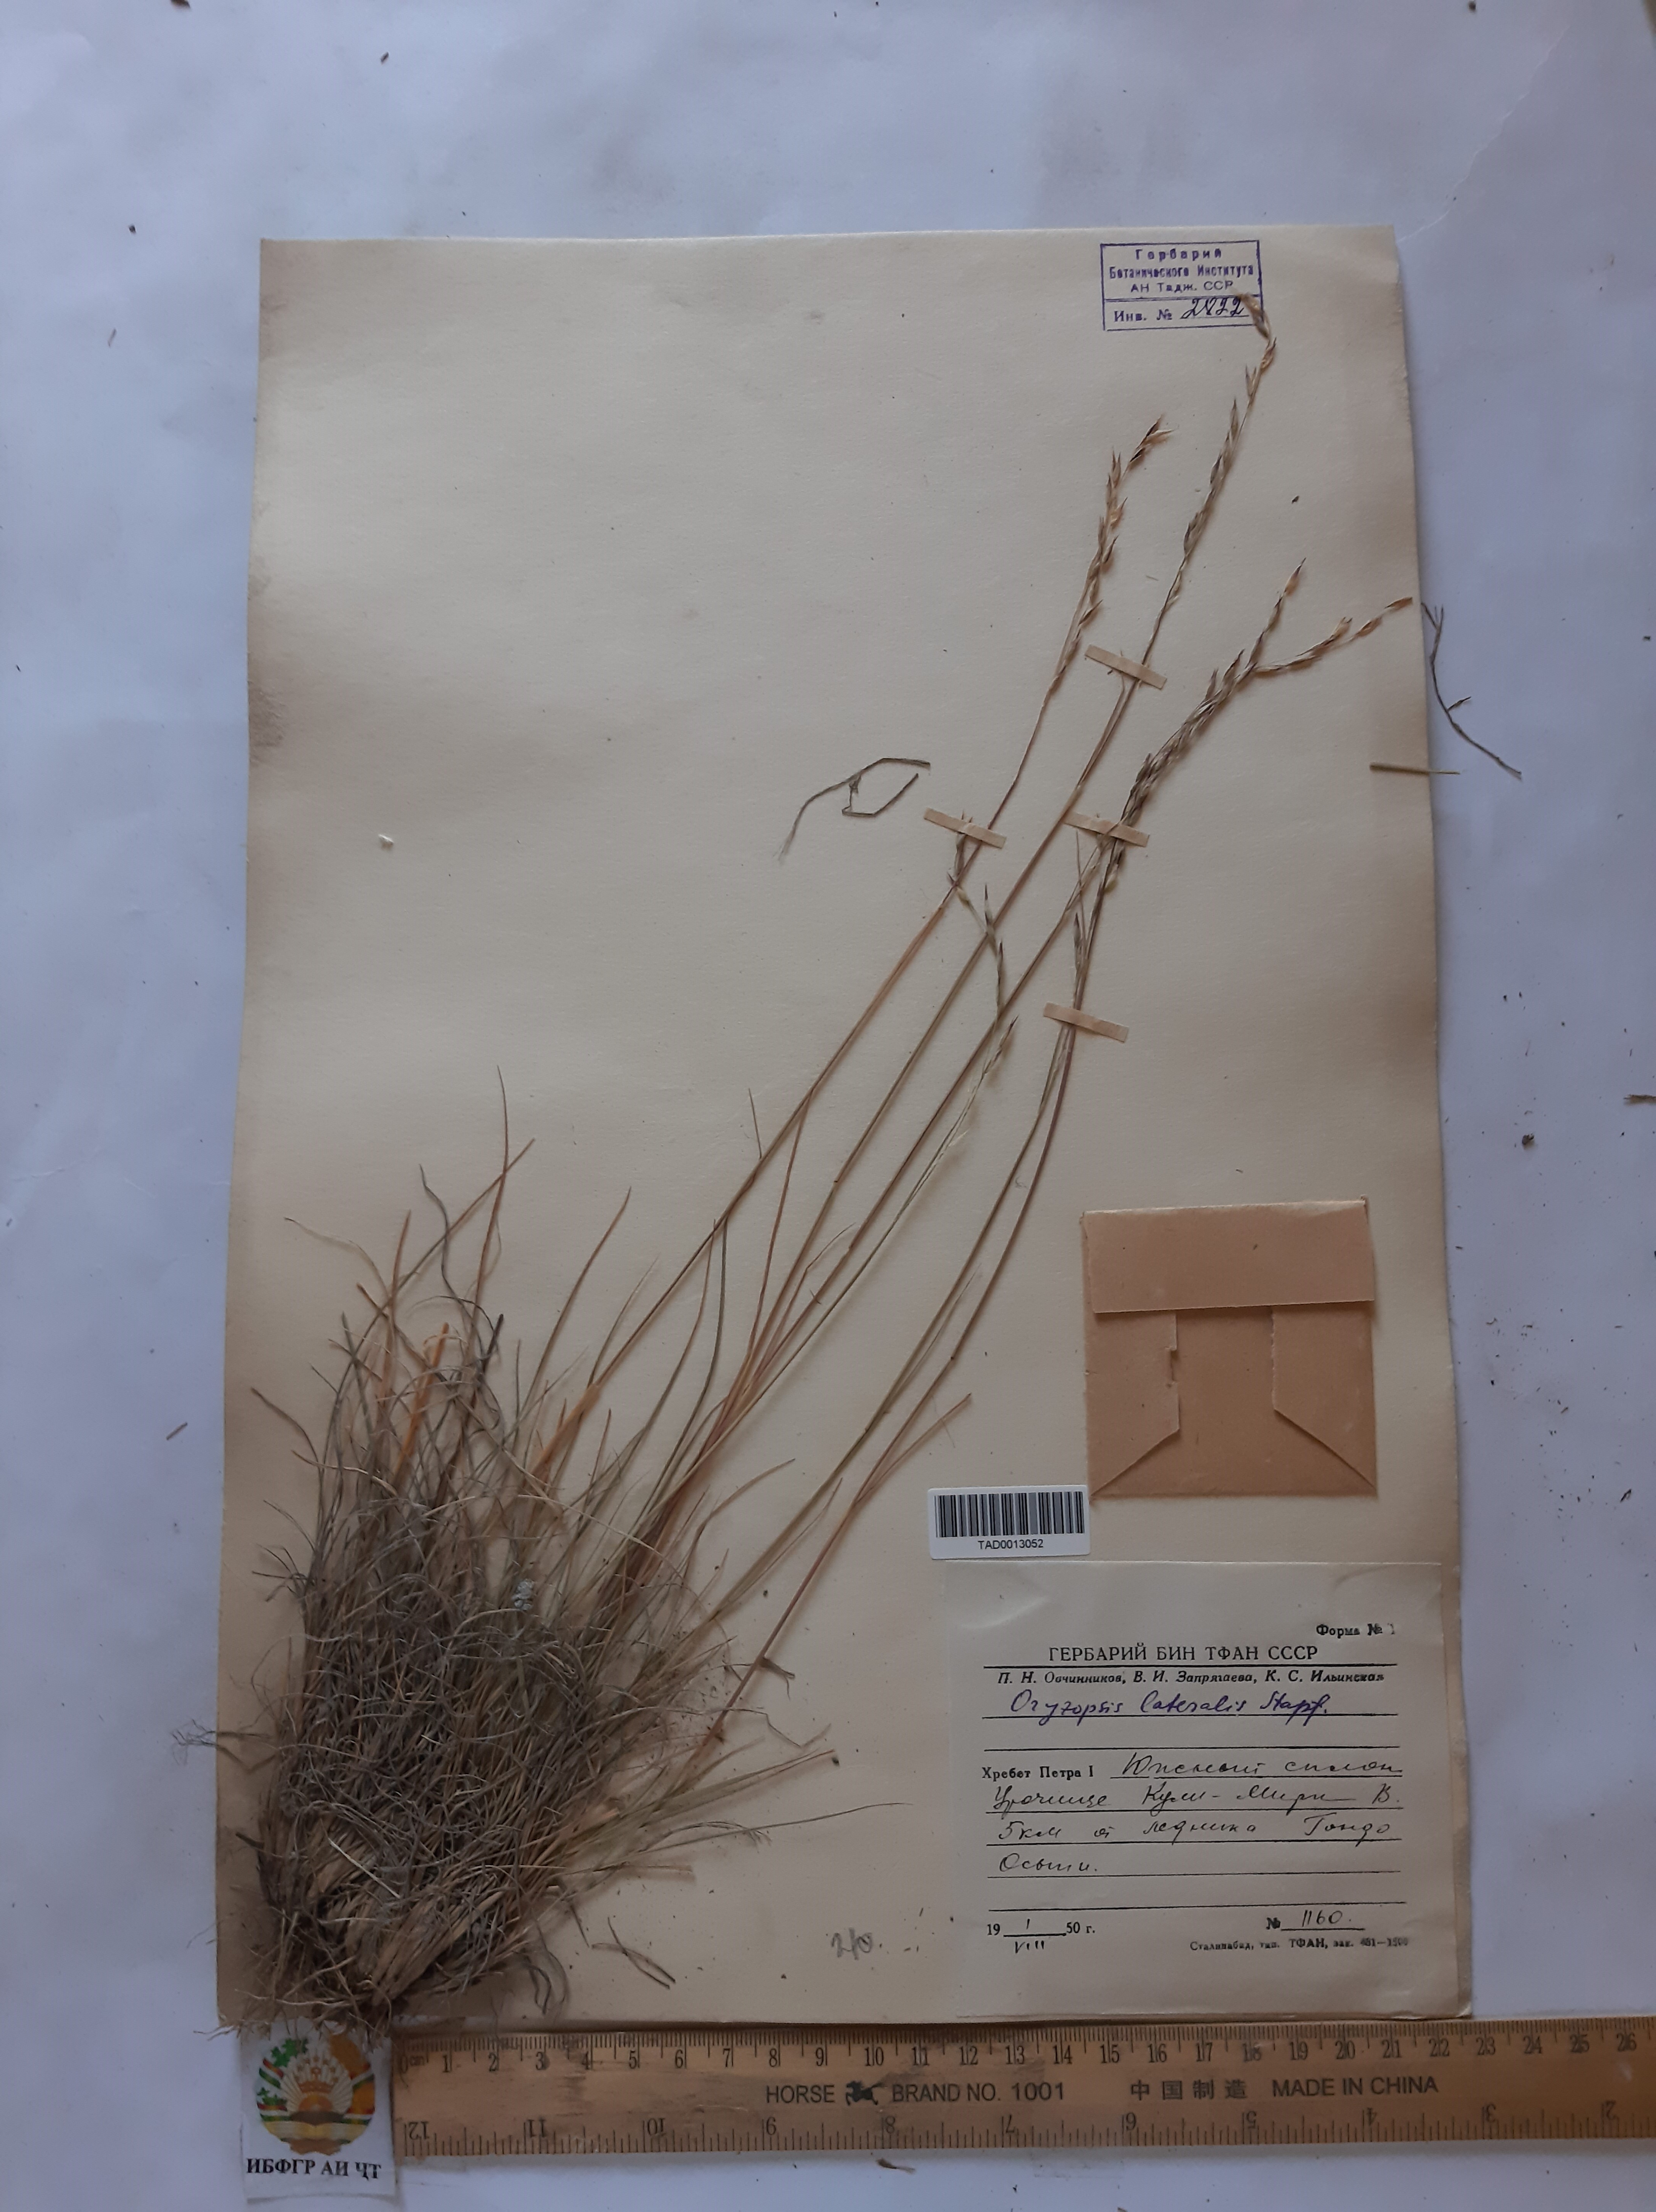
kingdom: Plantae
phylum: Tracheophyta
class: Liliopsida
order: Poales
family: Poaceae
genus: Piptatherum
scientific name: Piptatherum laterale
